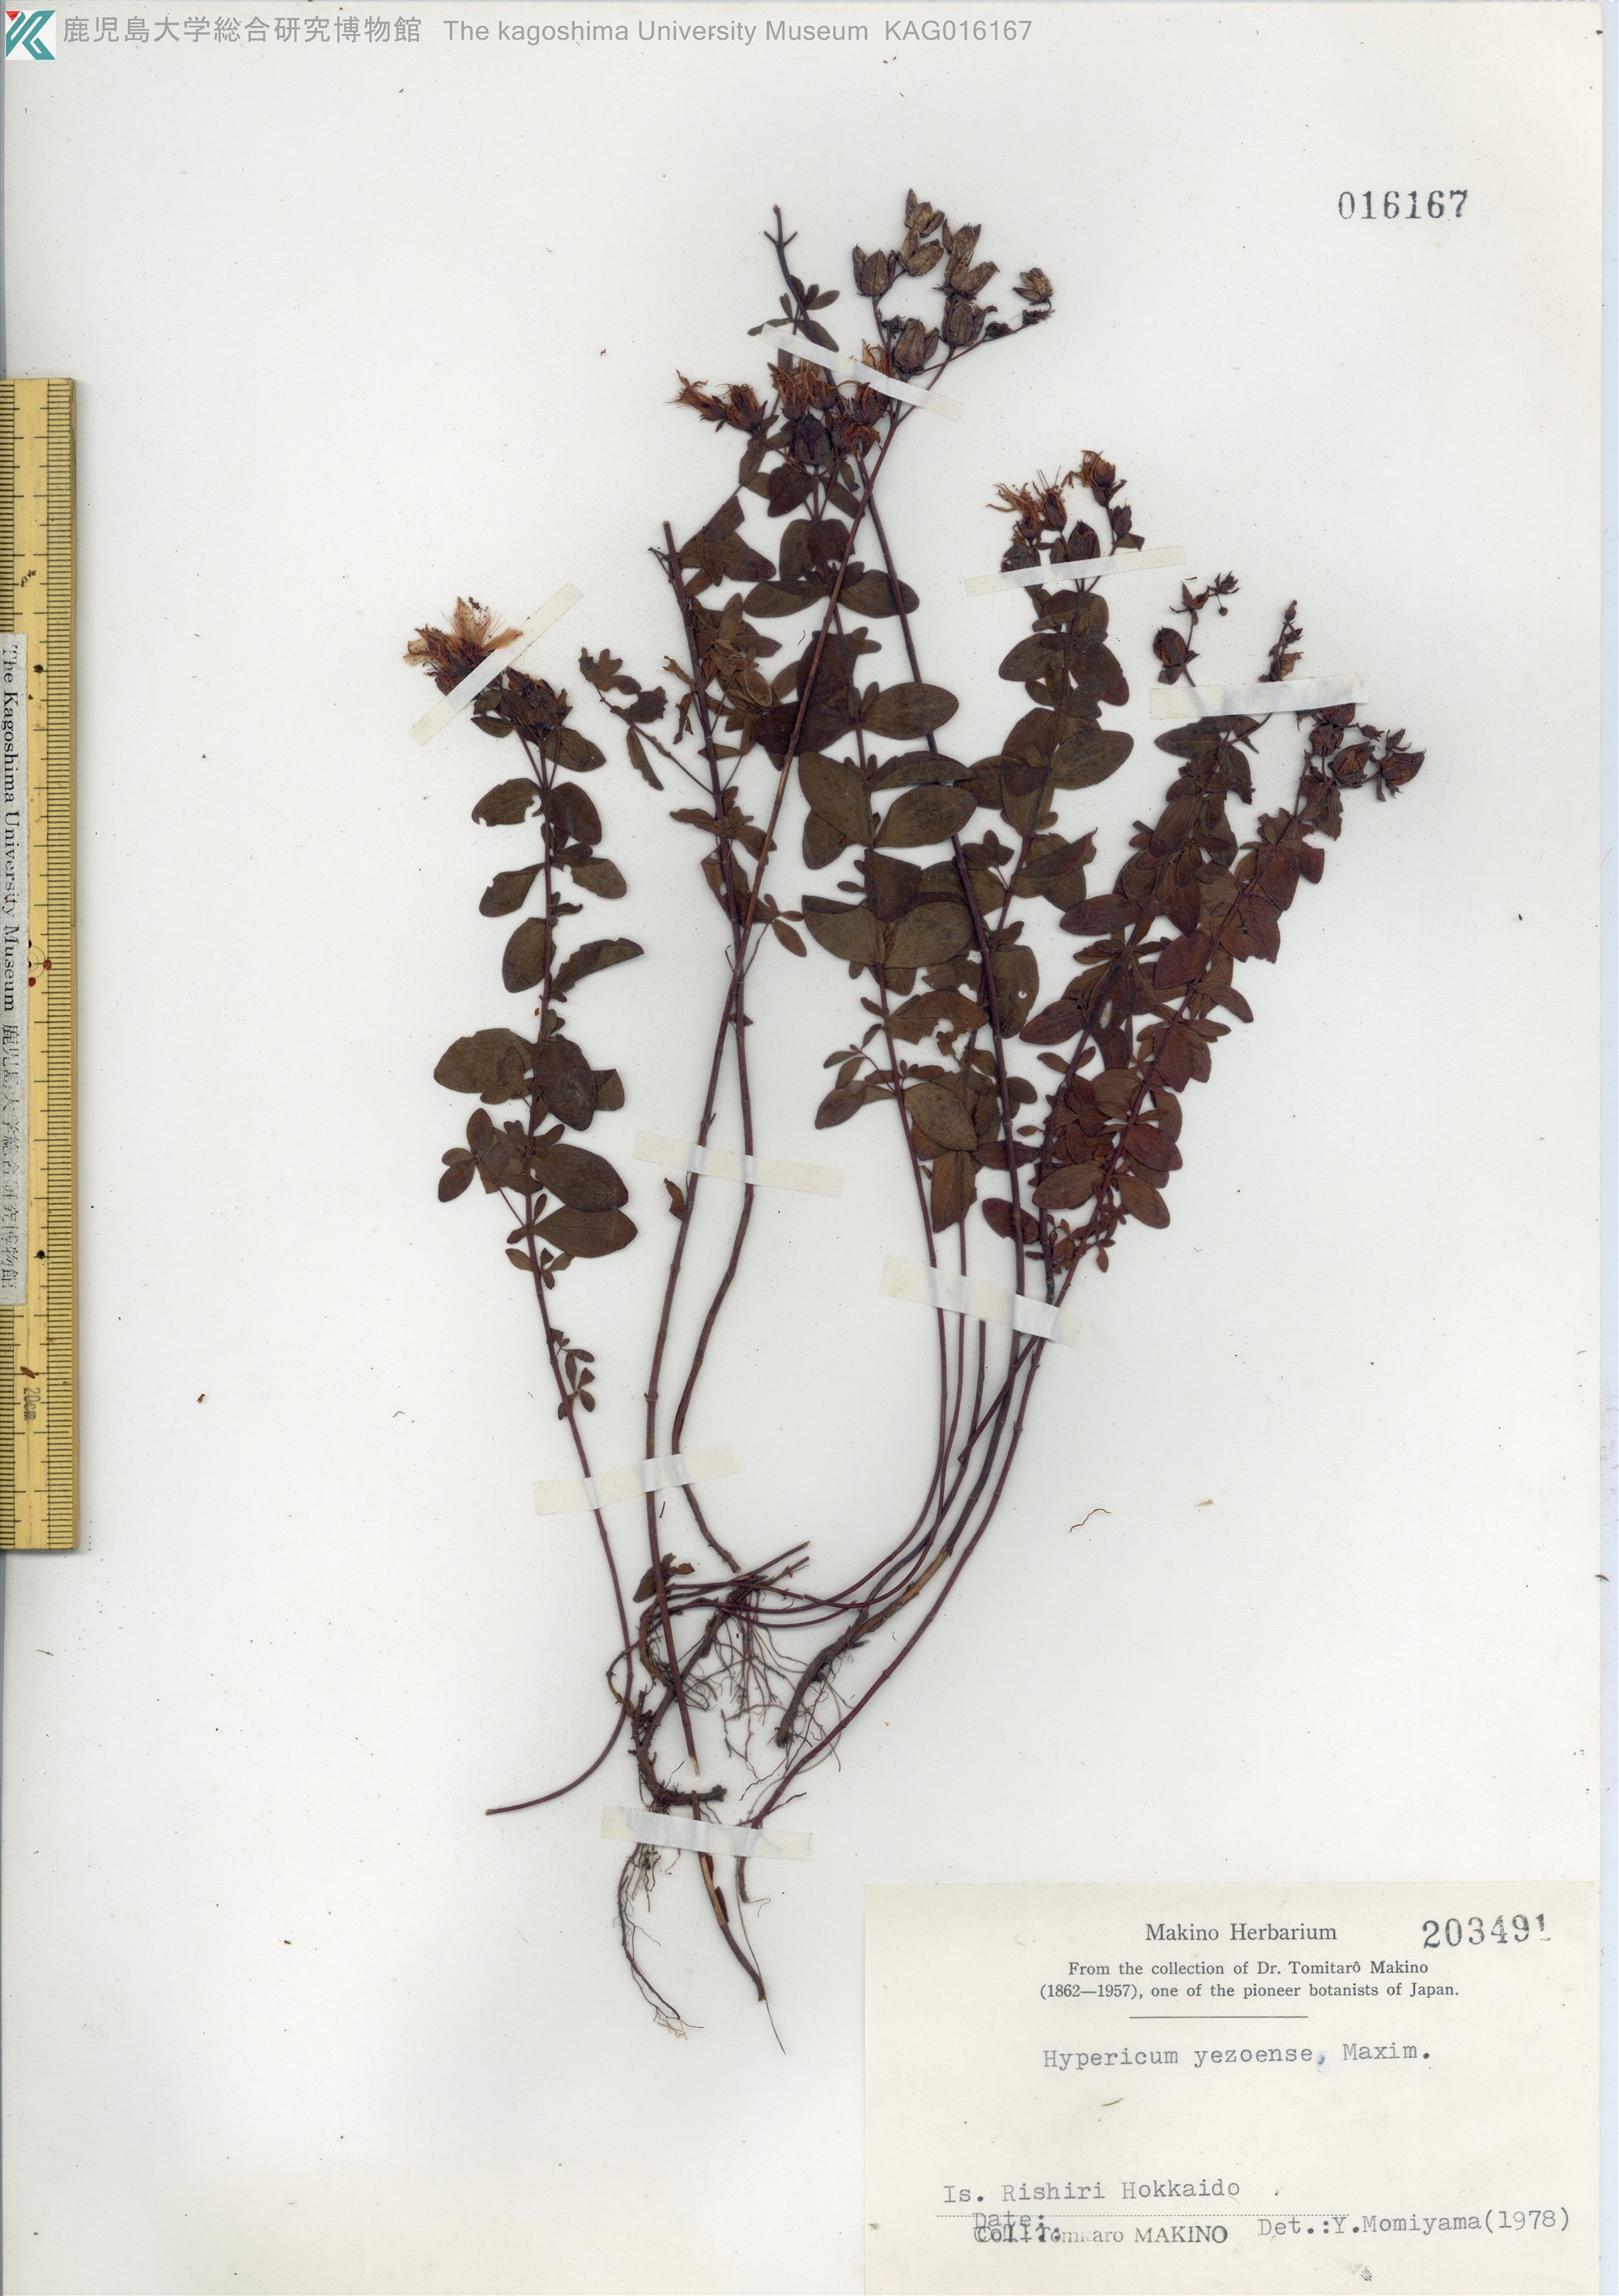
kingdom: Plantae
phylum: Tracheophyta
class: Magnoliopsida
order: Malpighiales
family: Hypericaceae
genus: Hypericum
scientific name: Hypericum yezoense
